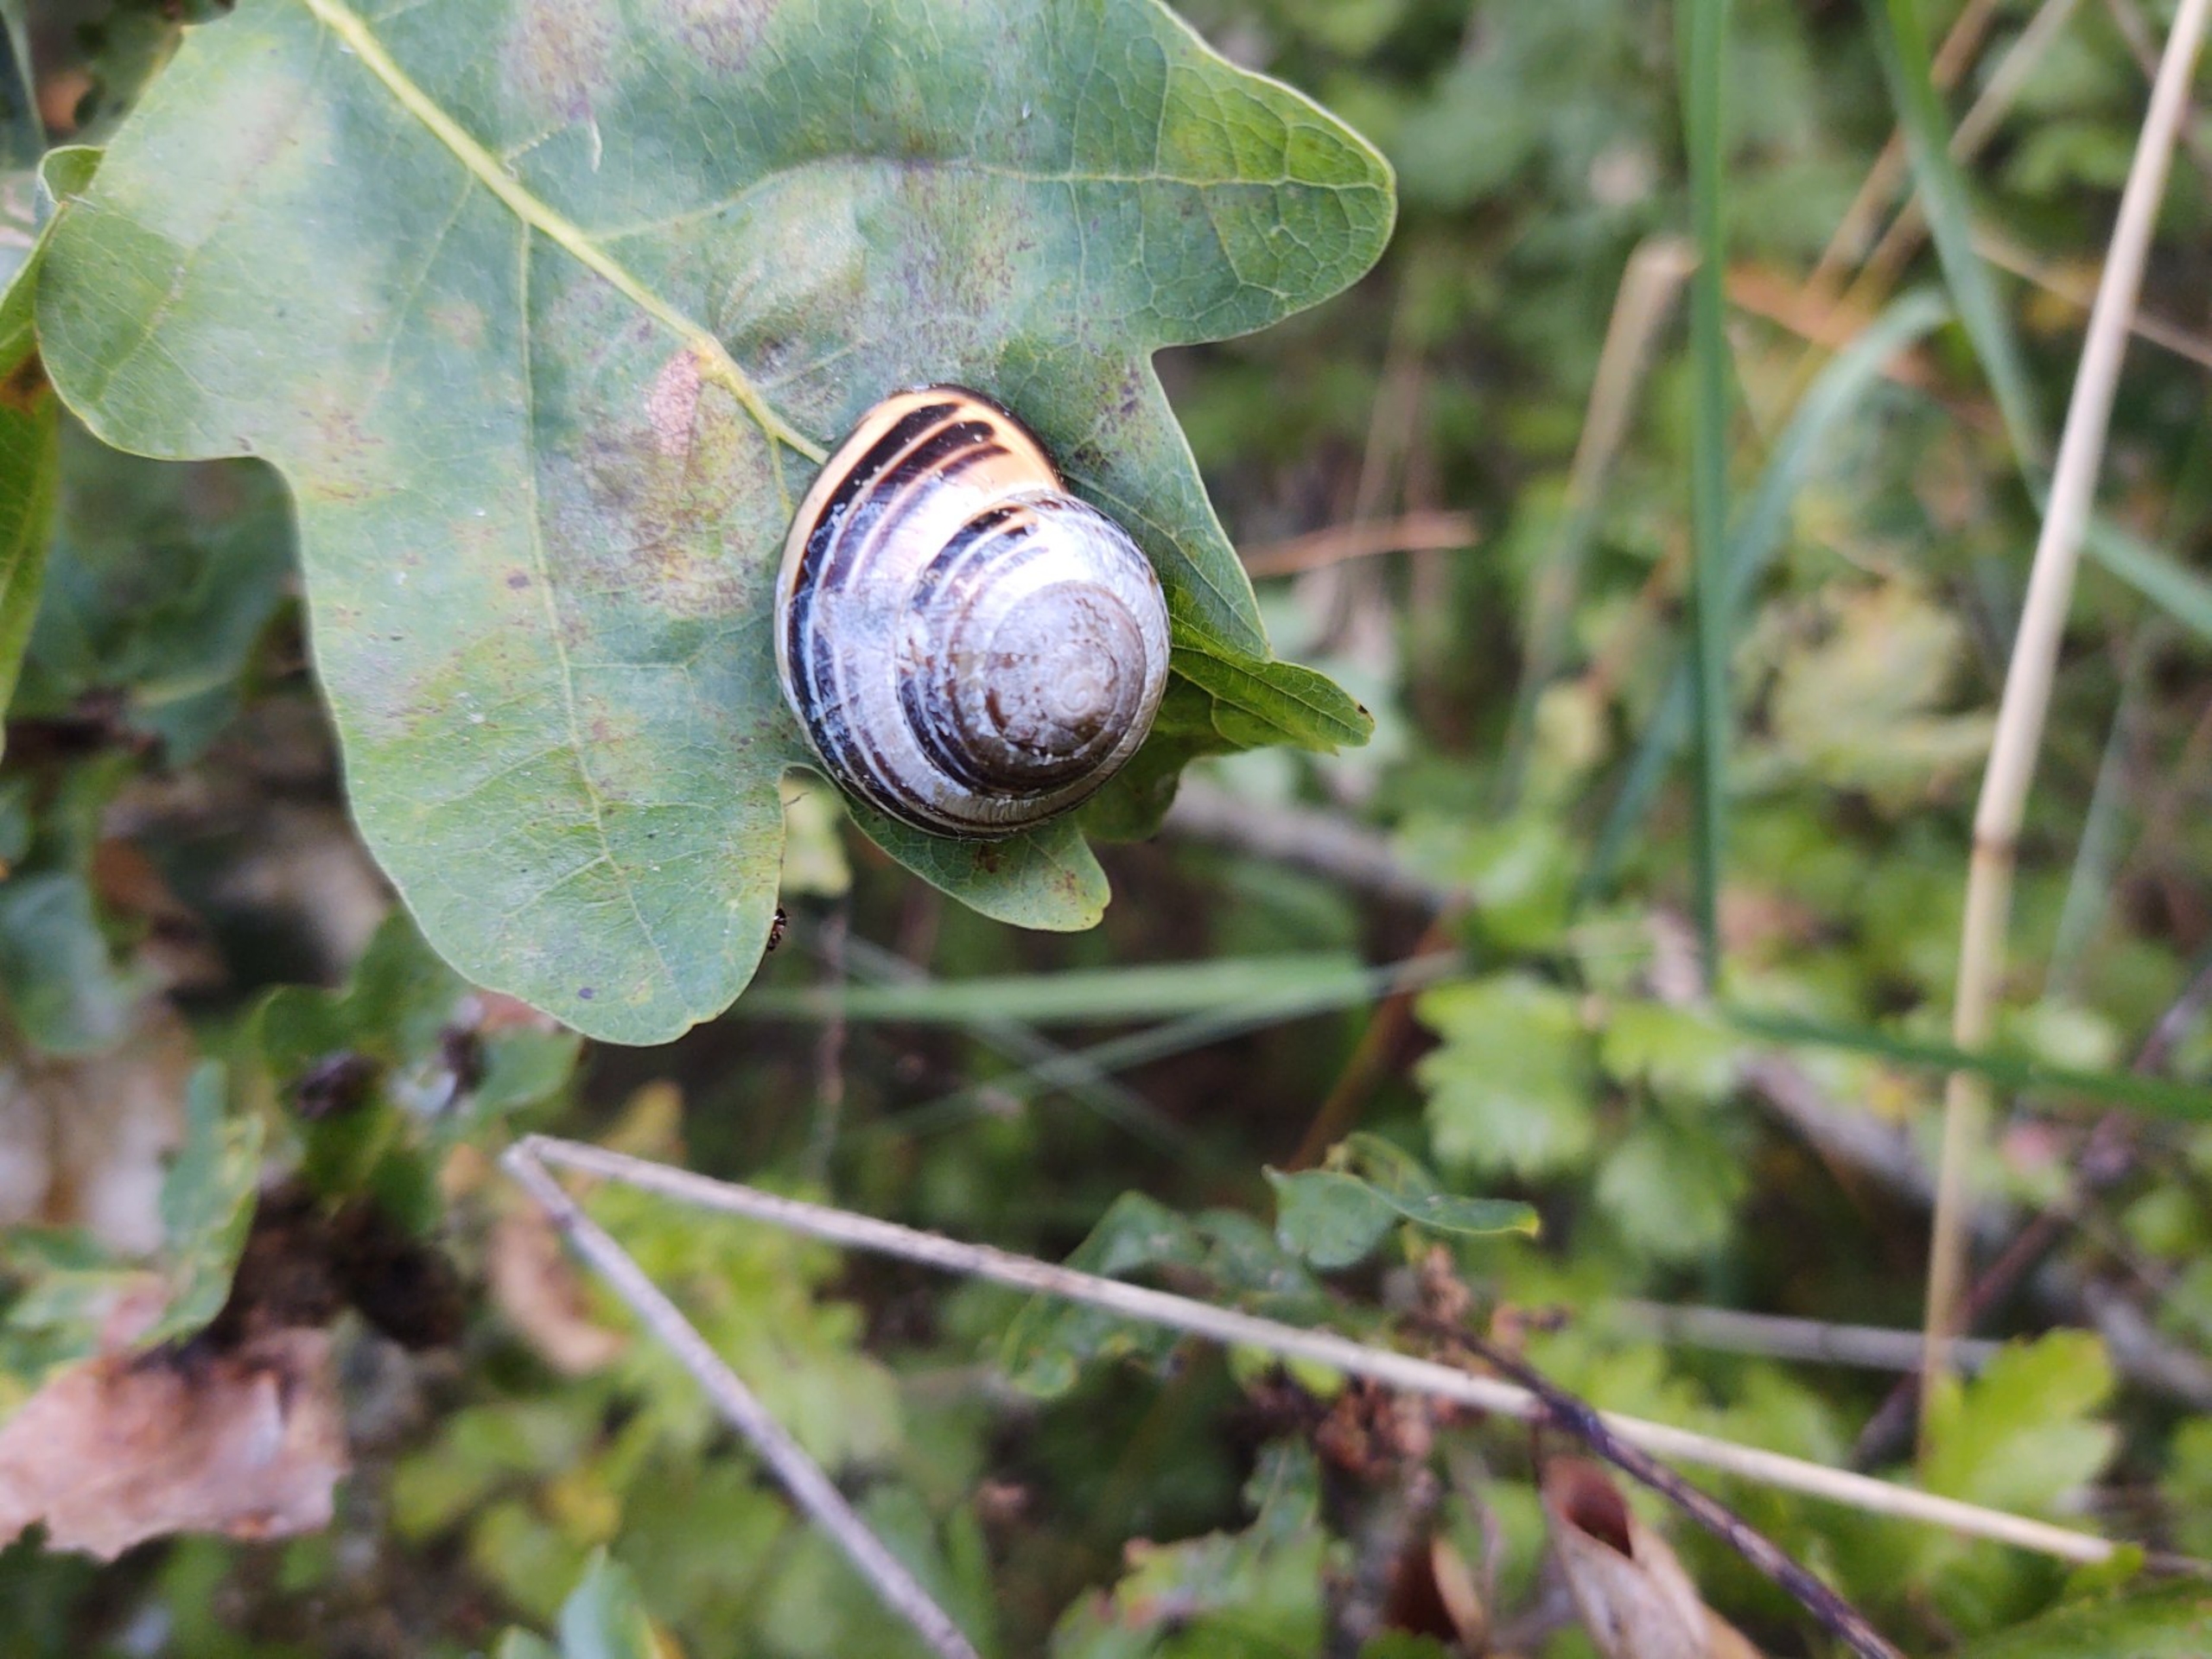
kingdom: Animalia
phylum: Mollusca
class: Gastropoda
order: Stylommatophora
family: Helicidae
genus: Cepaea
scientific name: Cepaea nemoralis
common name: Lundsnegl
